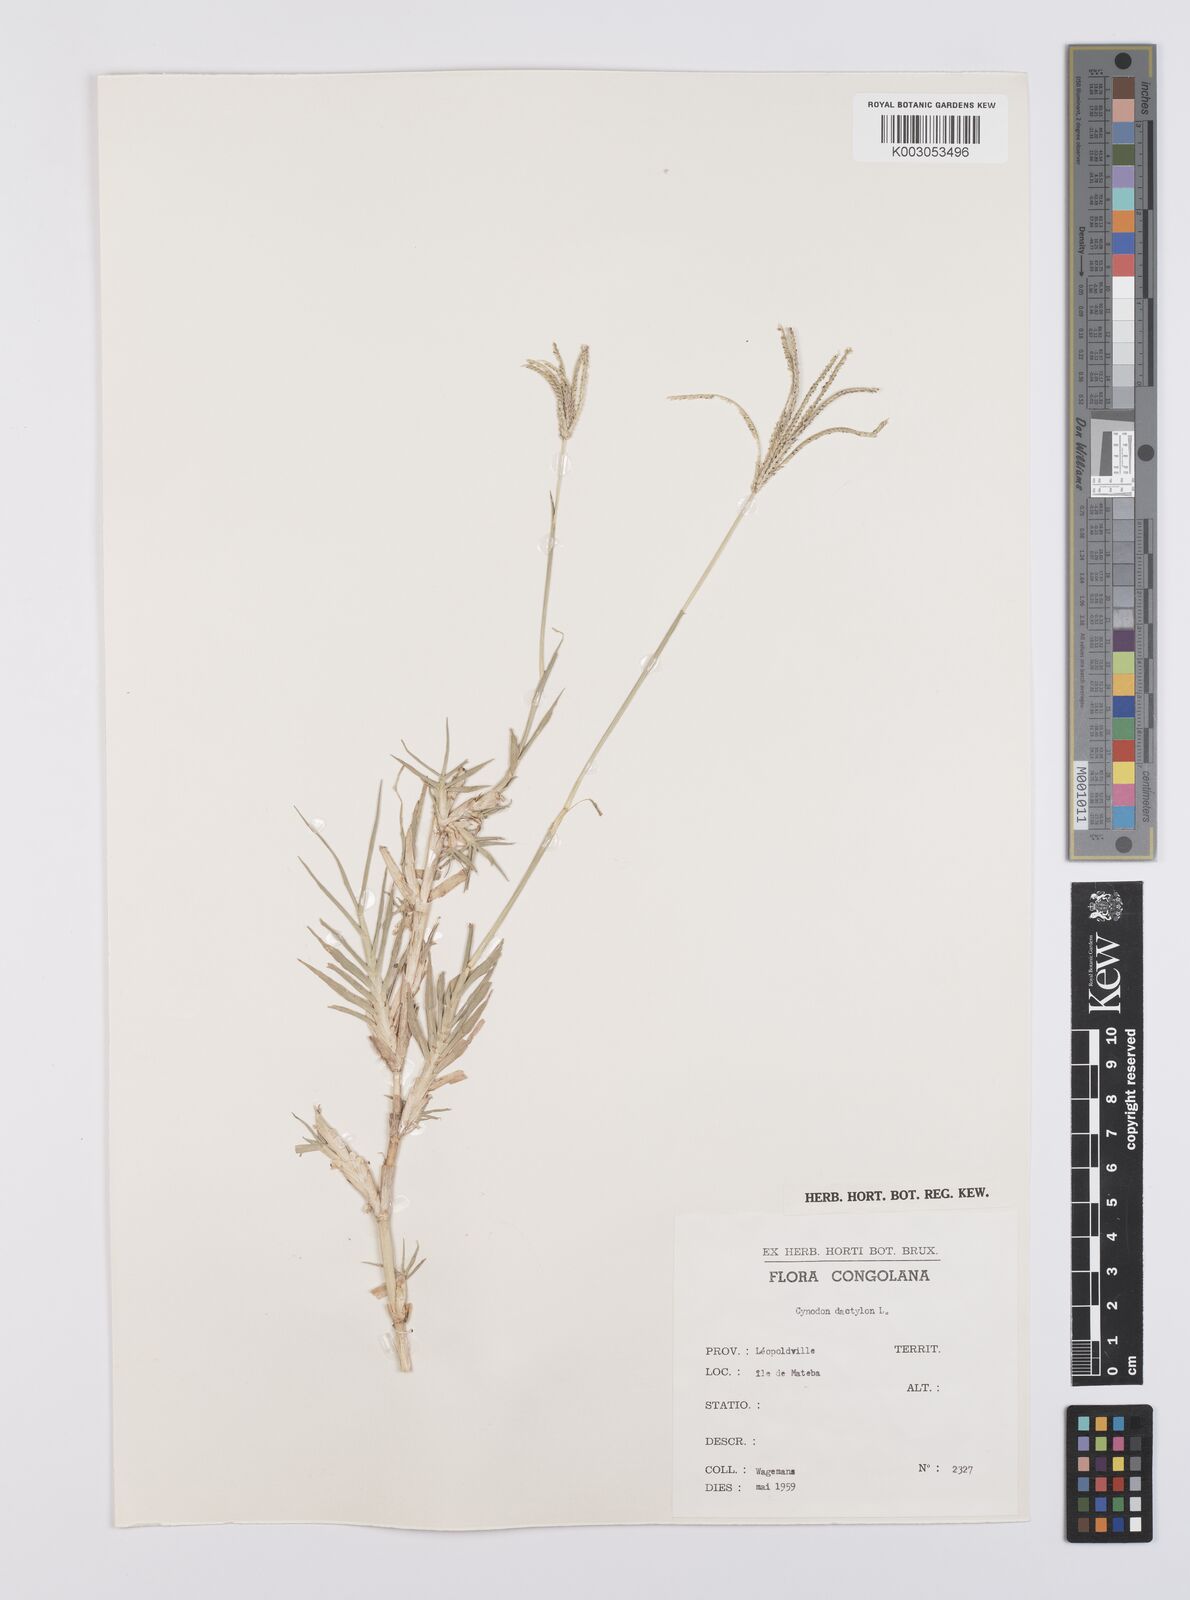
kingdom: Plantae
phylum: Tracheophyta
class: Liliopsida
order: Poales
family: Poaceae
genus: Cynodon
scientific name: Cynodon nlemfuensis
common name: African bermudagrass
